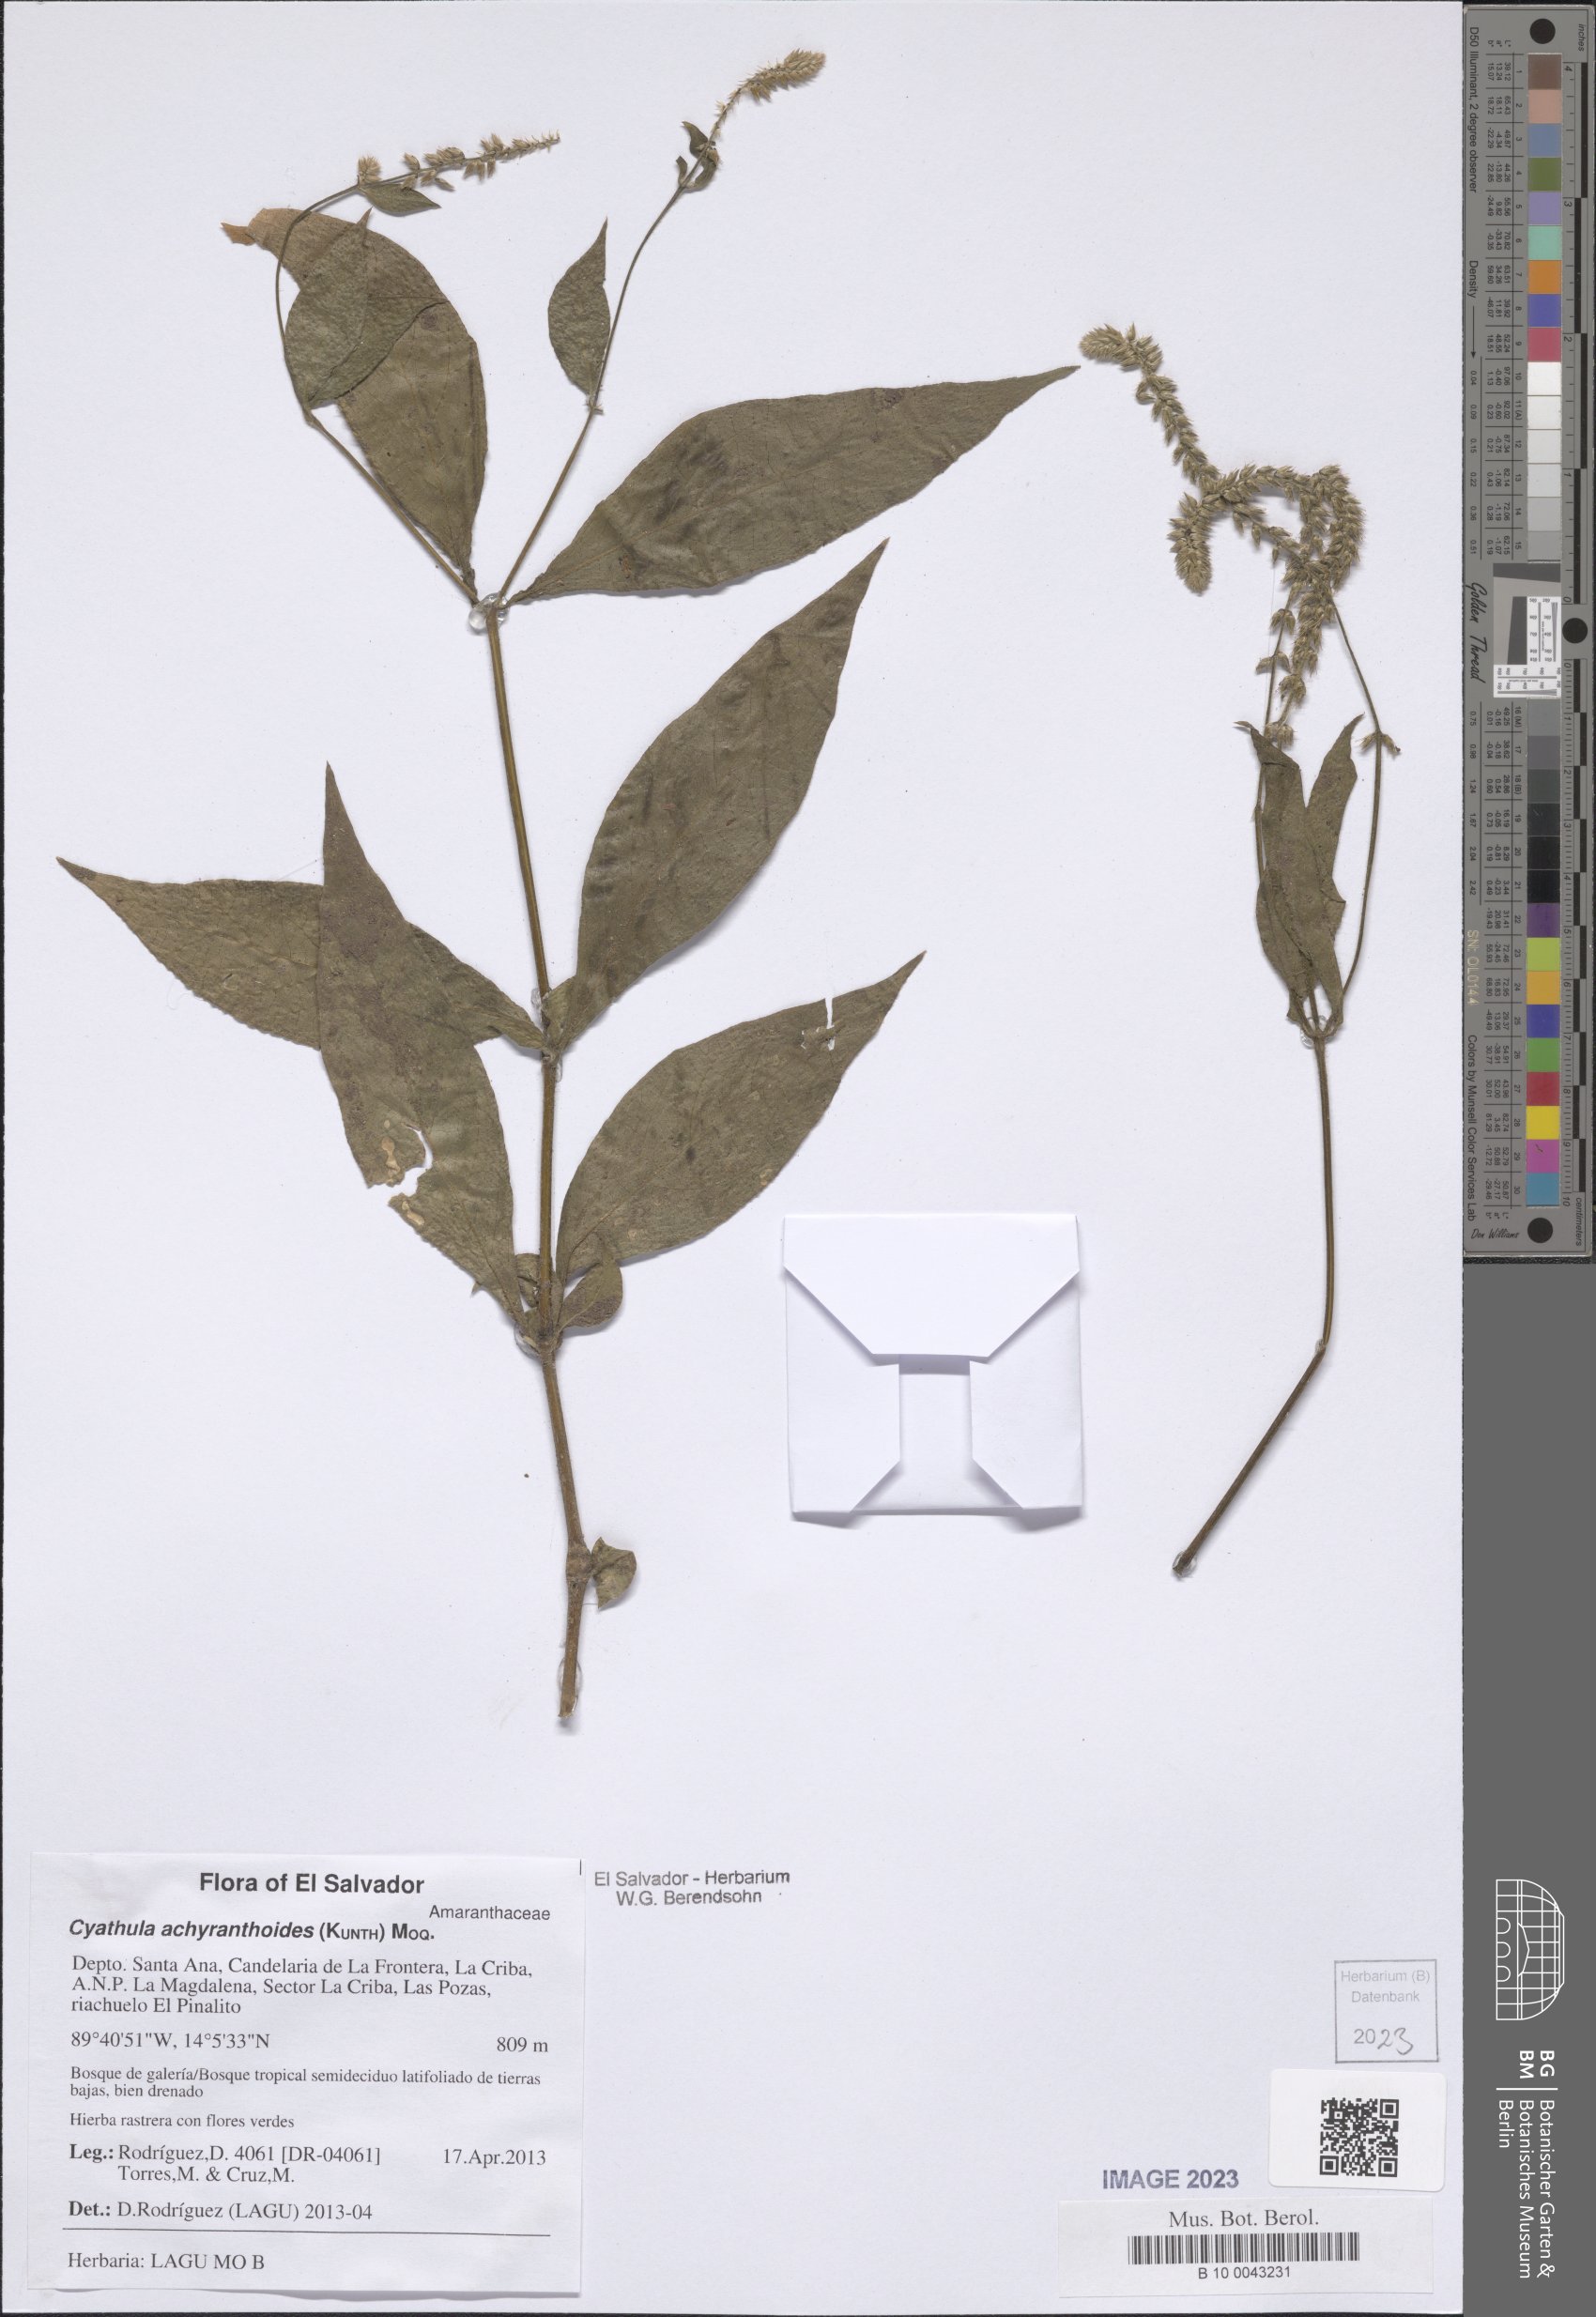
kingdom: Plantae
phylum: Tracheophyta
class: Magnoliopsida
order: Caryophyllales
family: Amaranthaceae
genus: Cyathula
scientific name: Cyathula achyranthoides
